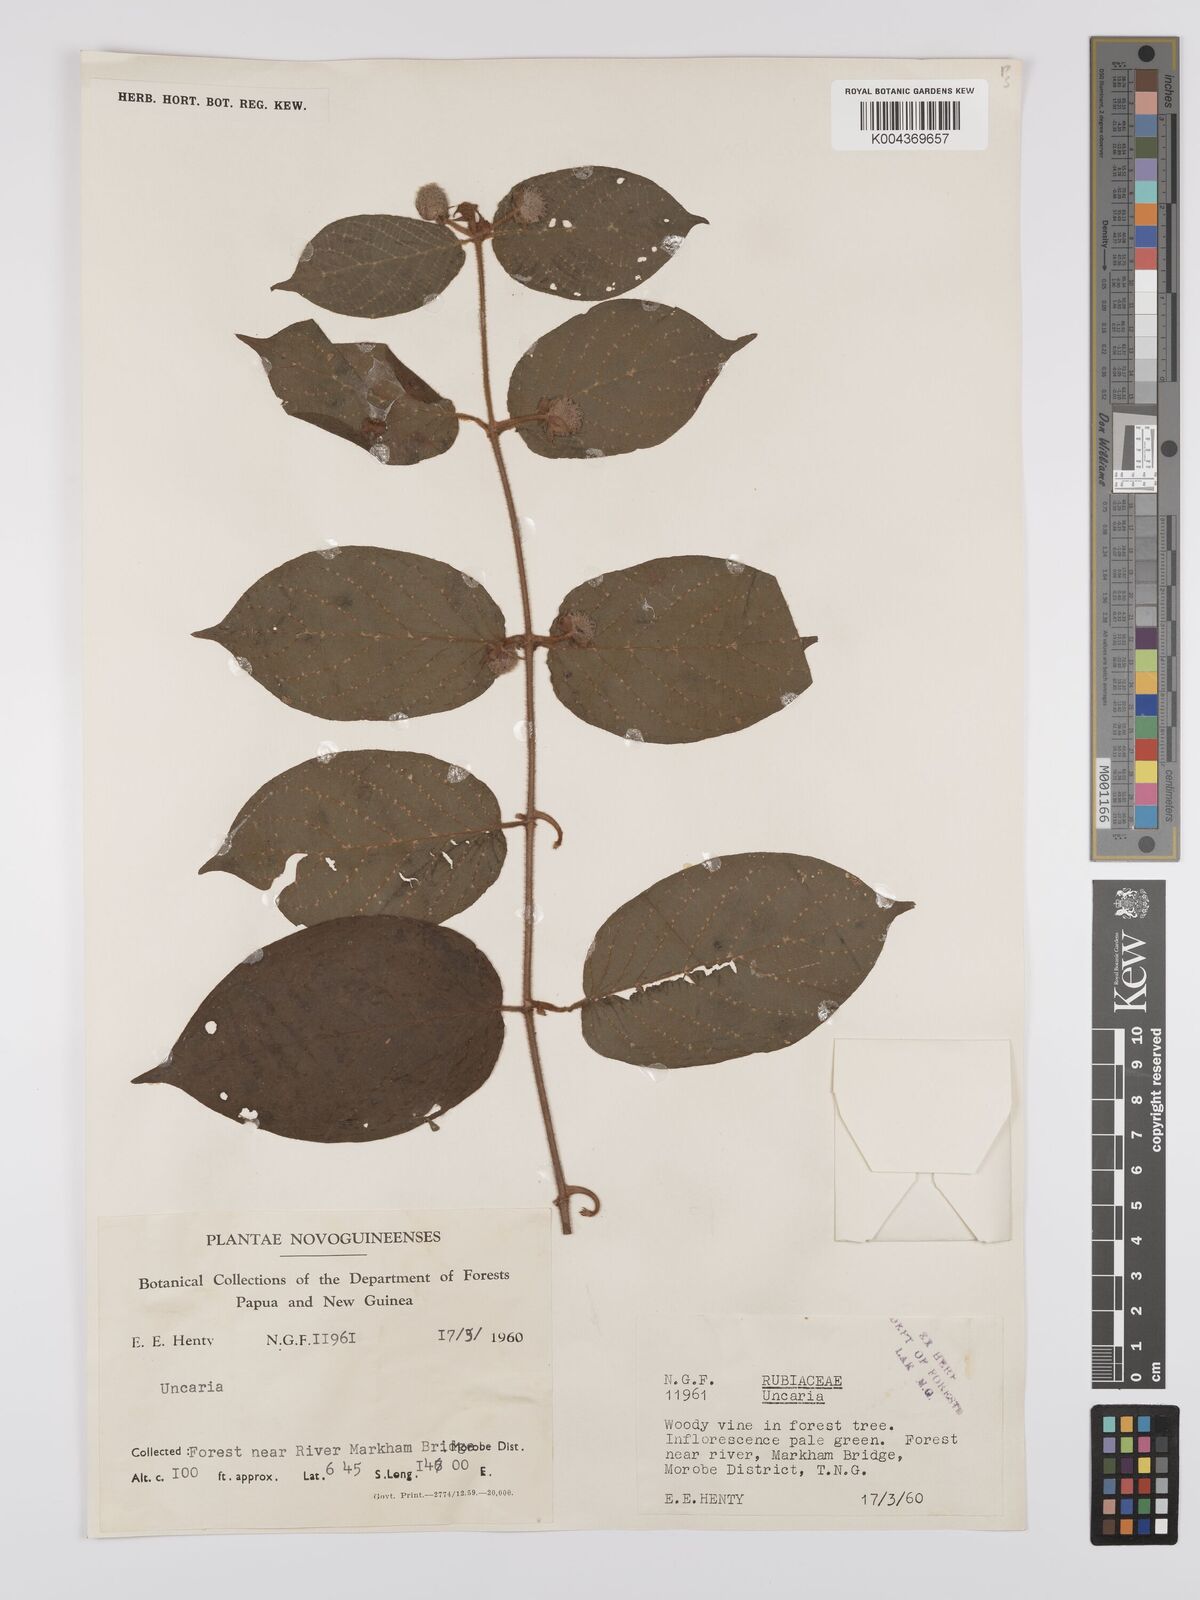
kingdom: Plantae
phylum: Tracheophyta
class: Magnoliopsida
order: Gentianales
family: Rubiaceae
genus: Uncaria
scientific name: Uncaria lanosa
